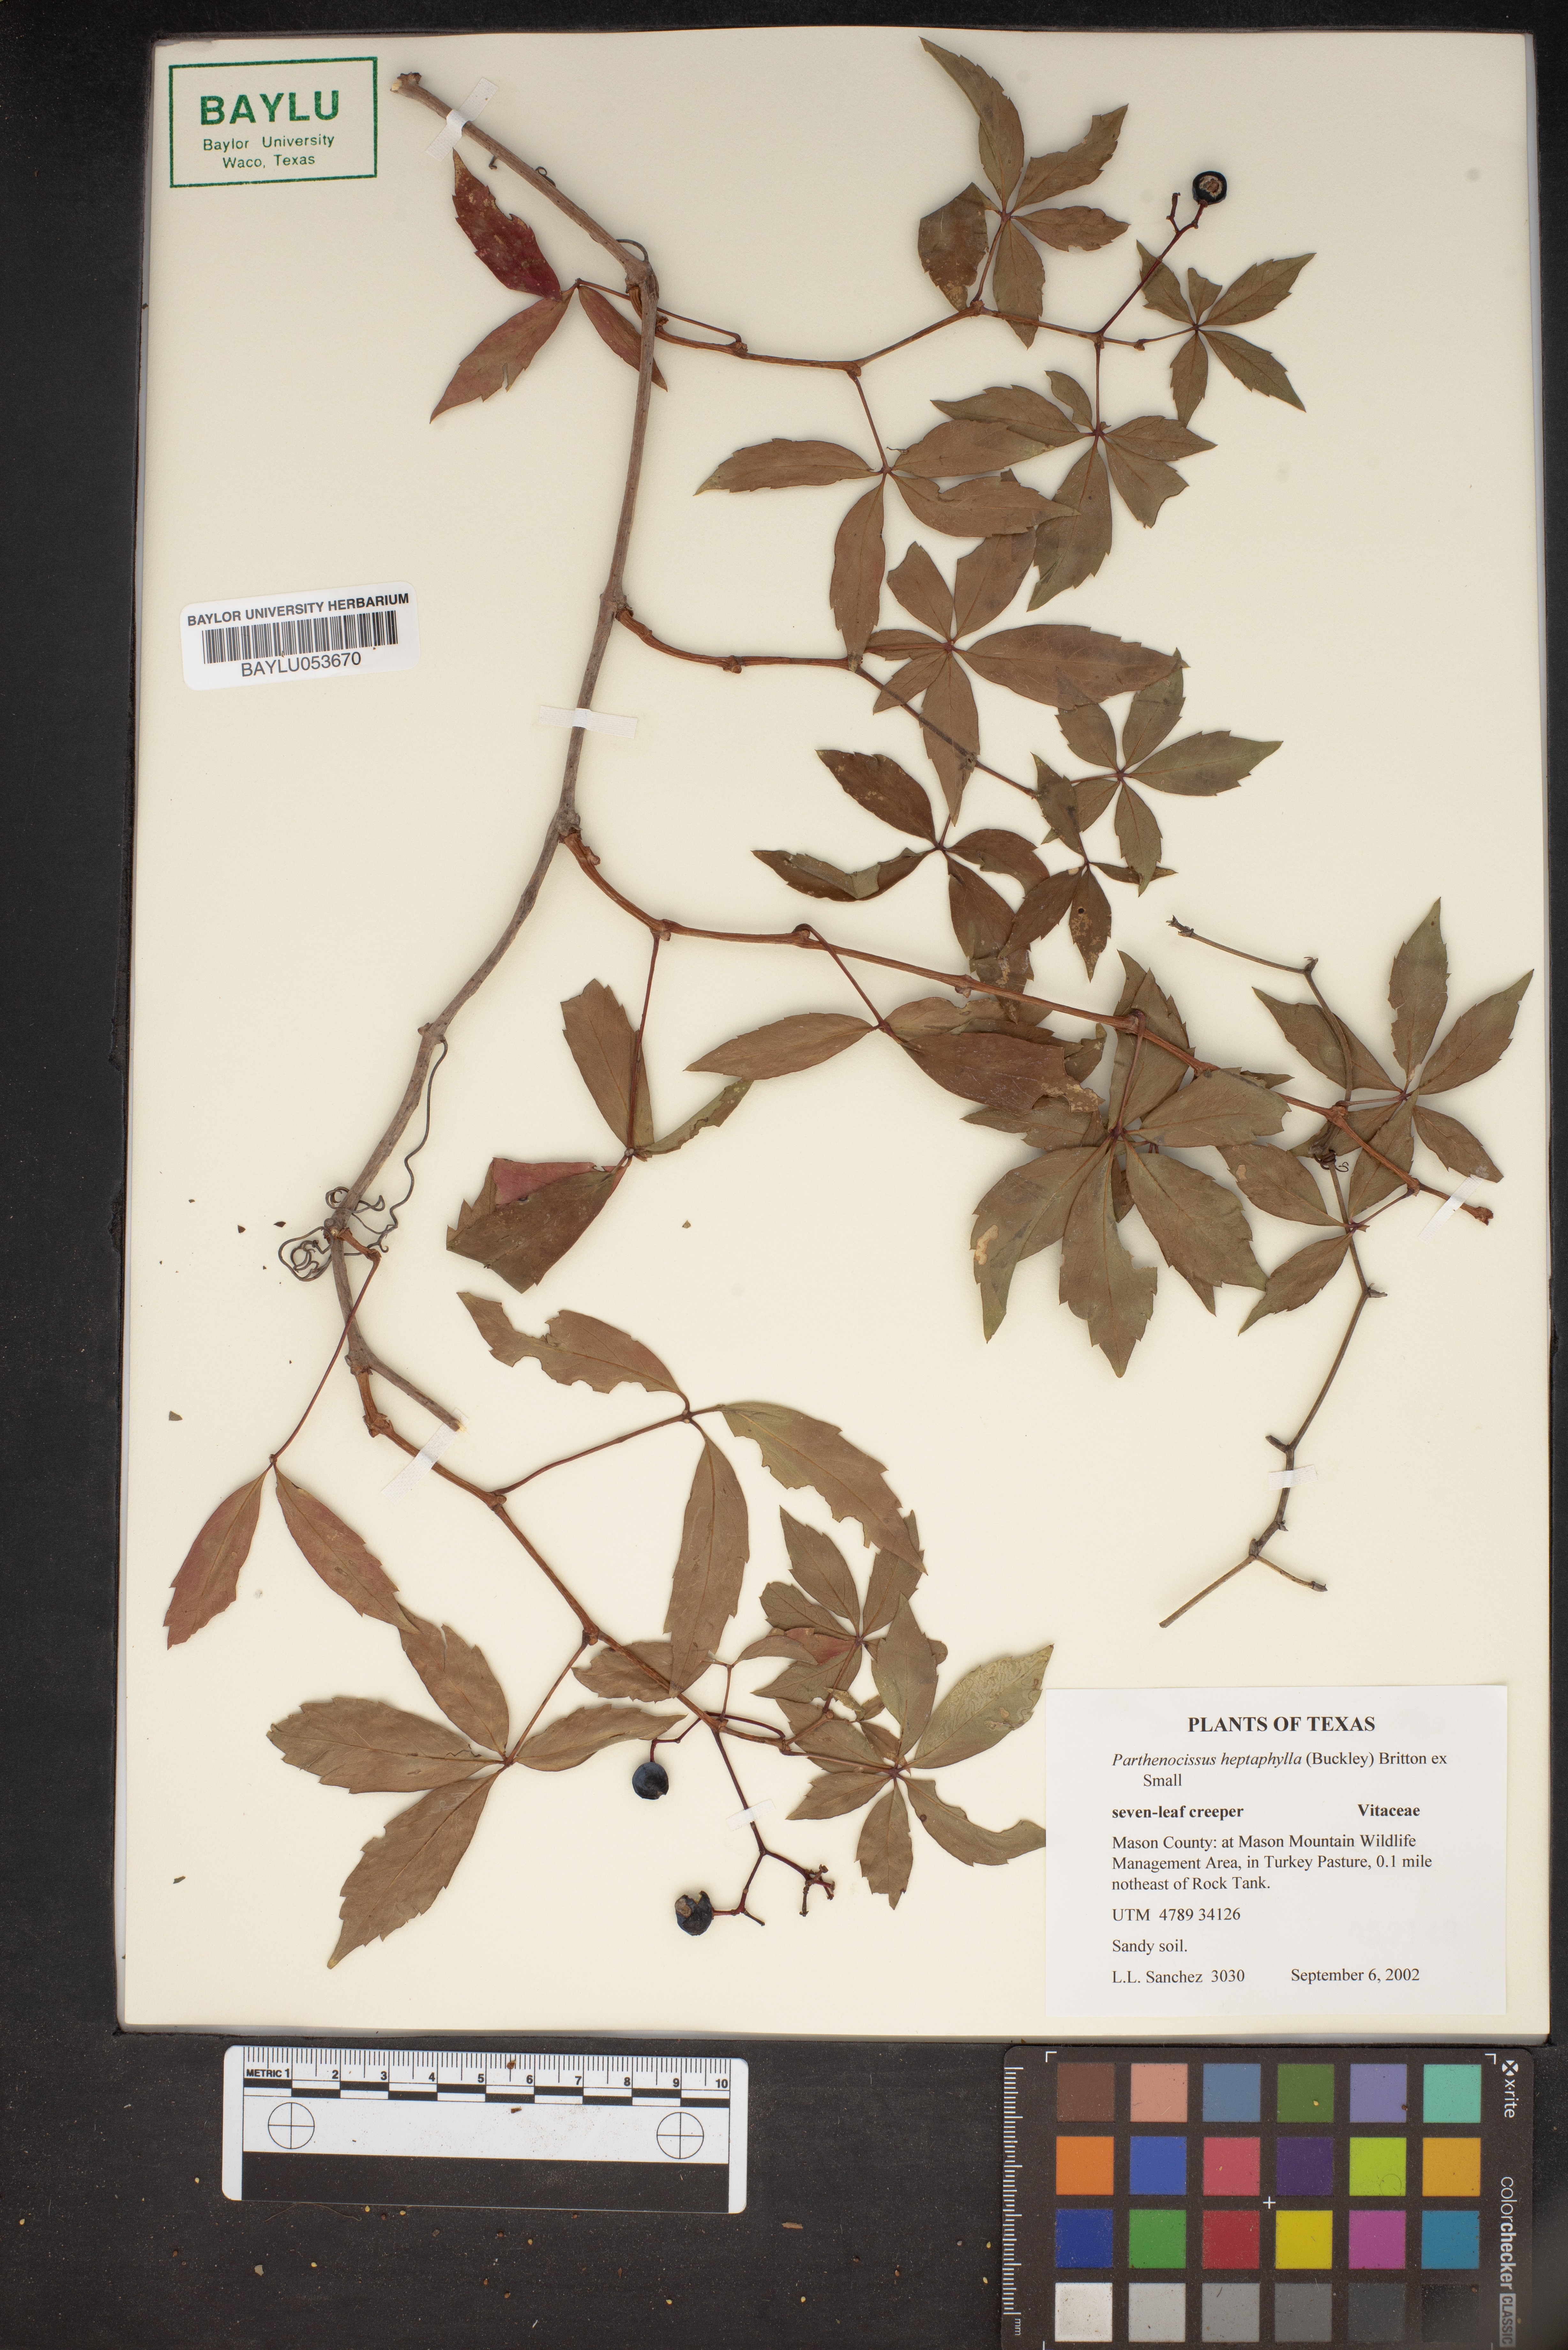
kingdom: Plantae
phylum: Tracheophyta
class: Magnoliopsida
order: Vitales
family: Vitaceae
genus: Parthenocissus
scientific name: Parthenocissus heptaphylla
